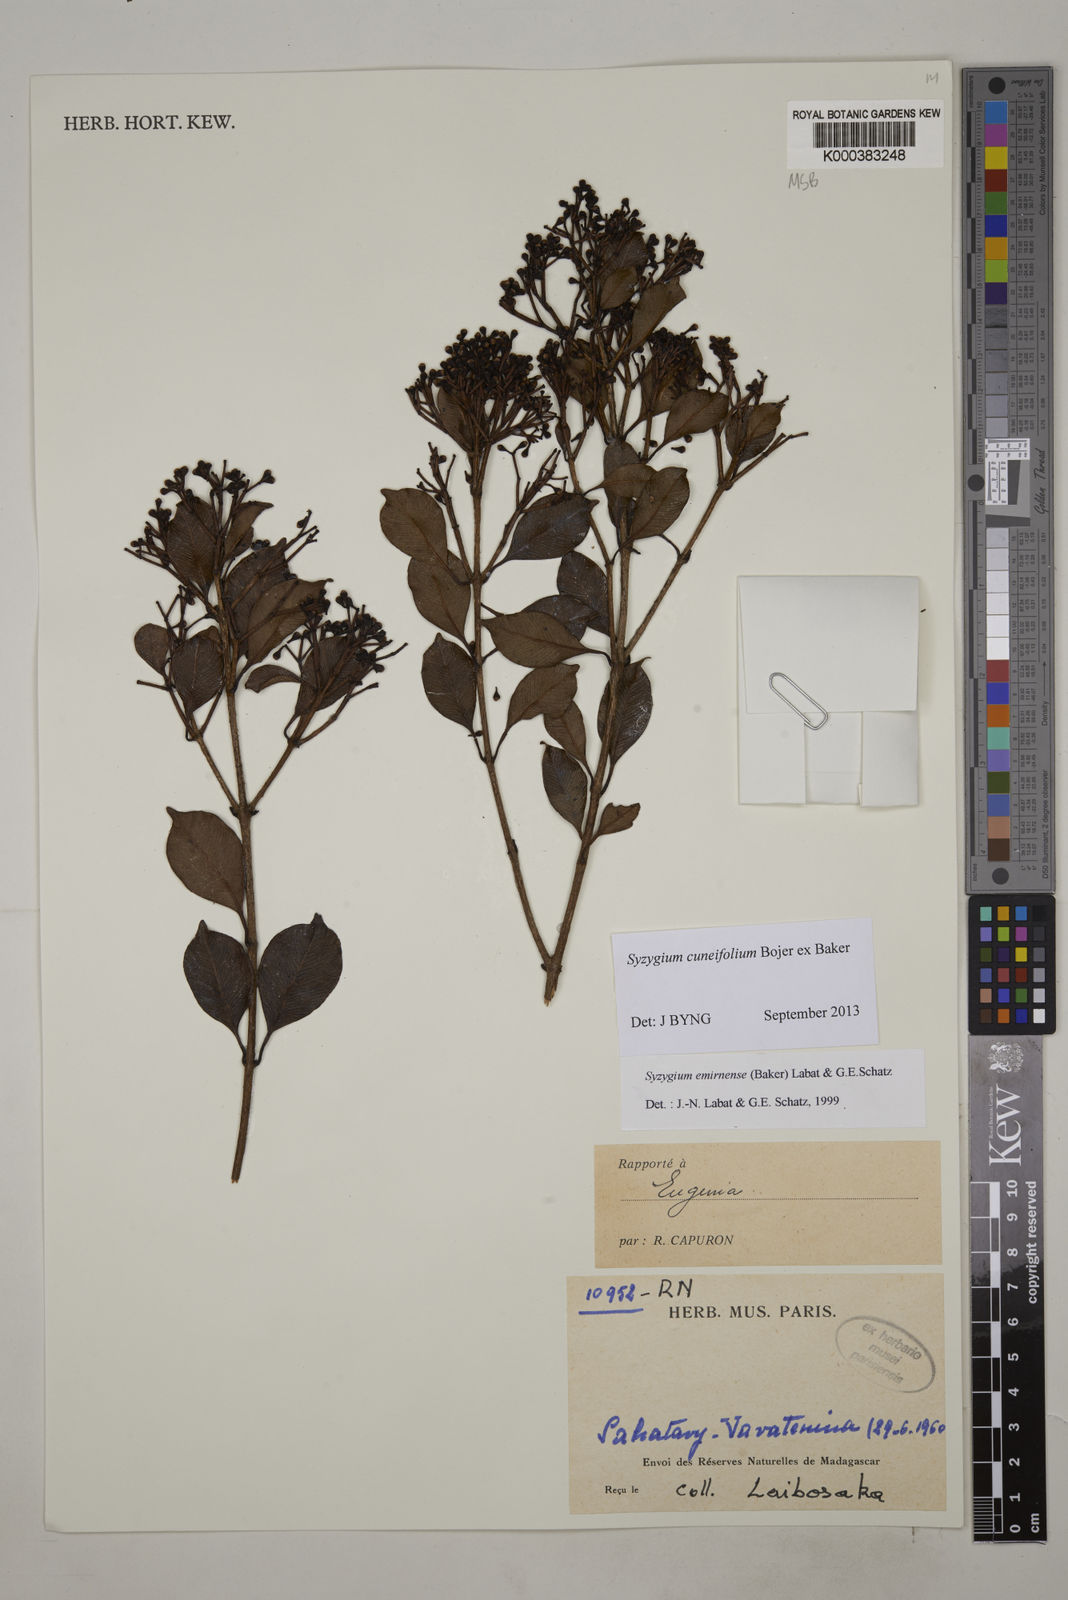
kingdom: Plantae
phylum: Tracheophyta
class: Magnoliopsida
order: Myrtales
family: Myrtaceae
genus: Syzygium
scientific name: Syzygium emirnense
